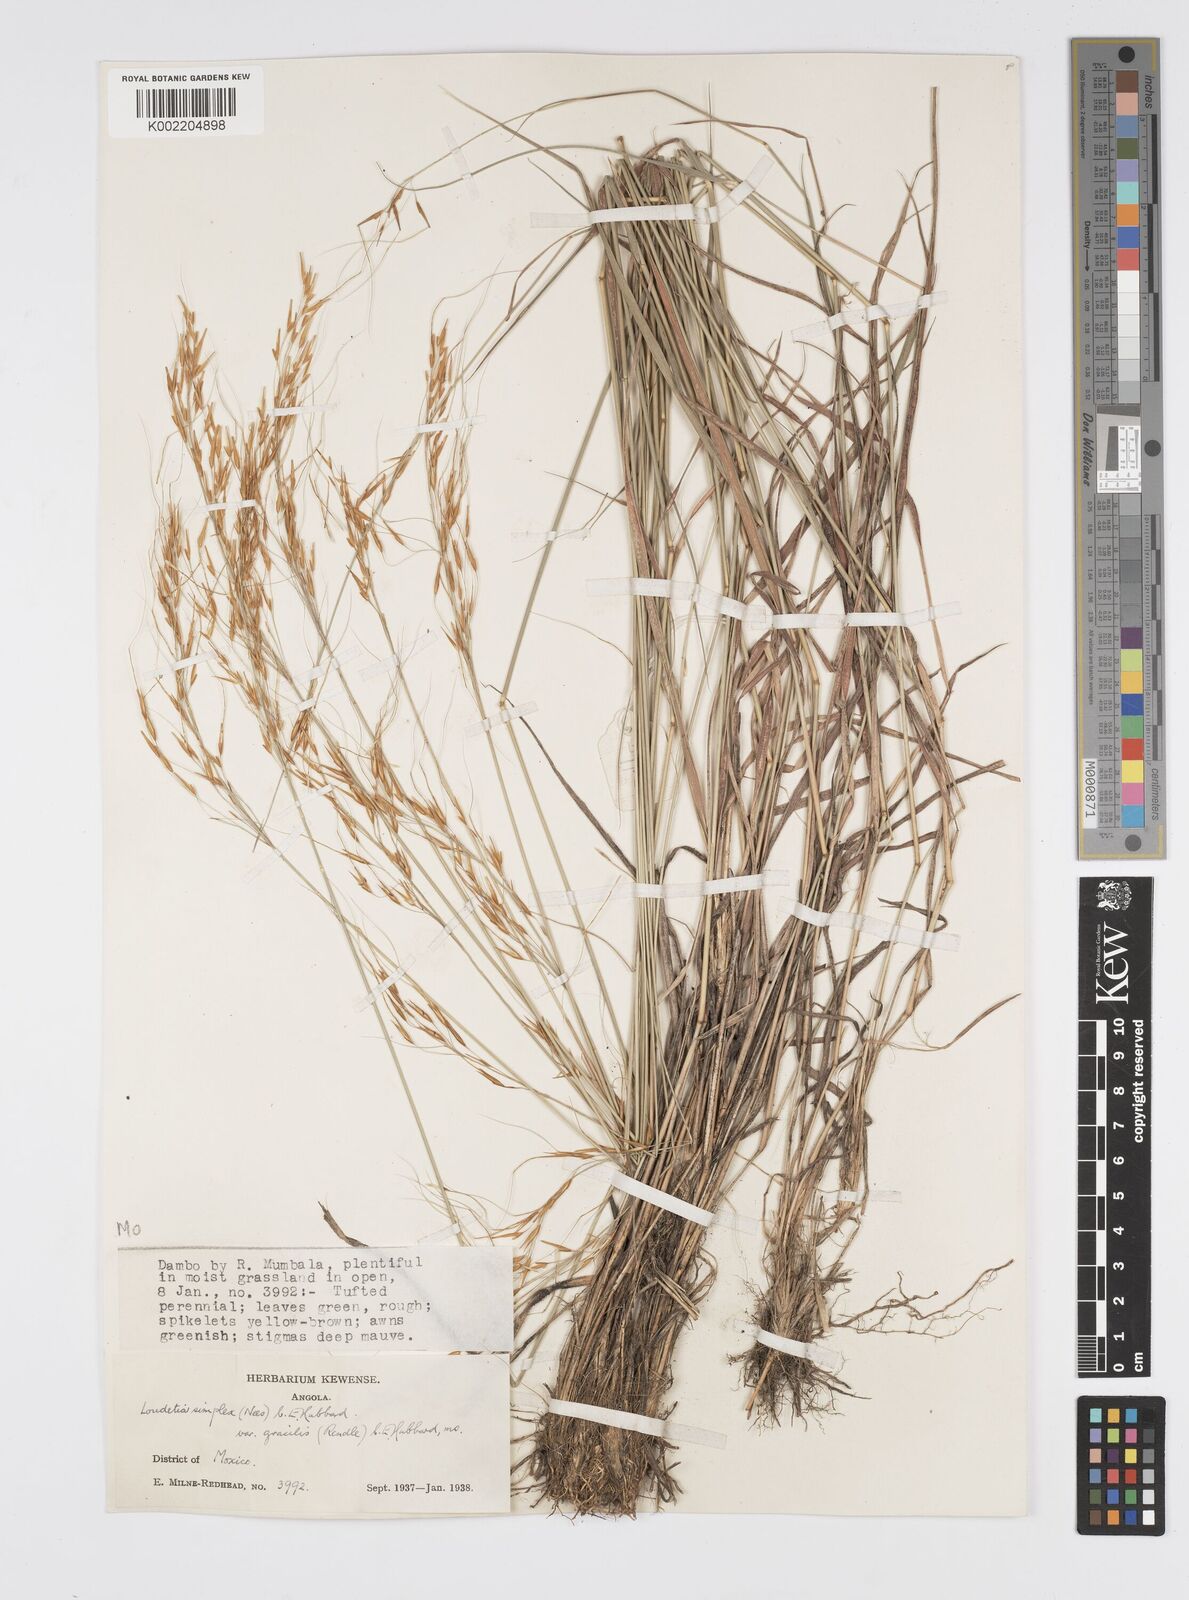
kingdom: Plantae
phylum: Tracheophyta
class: Liliopsida
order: Poales
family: Poaceae
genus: Loudetia
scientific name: Loudetia simplex
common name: Common russet grass
